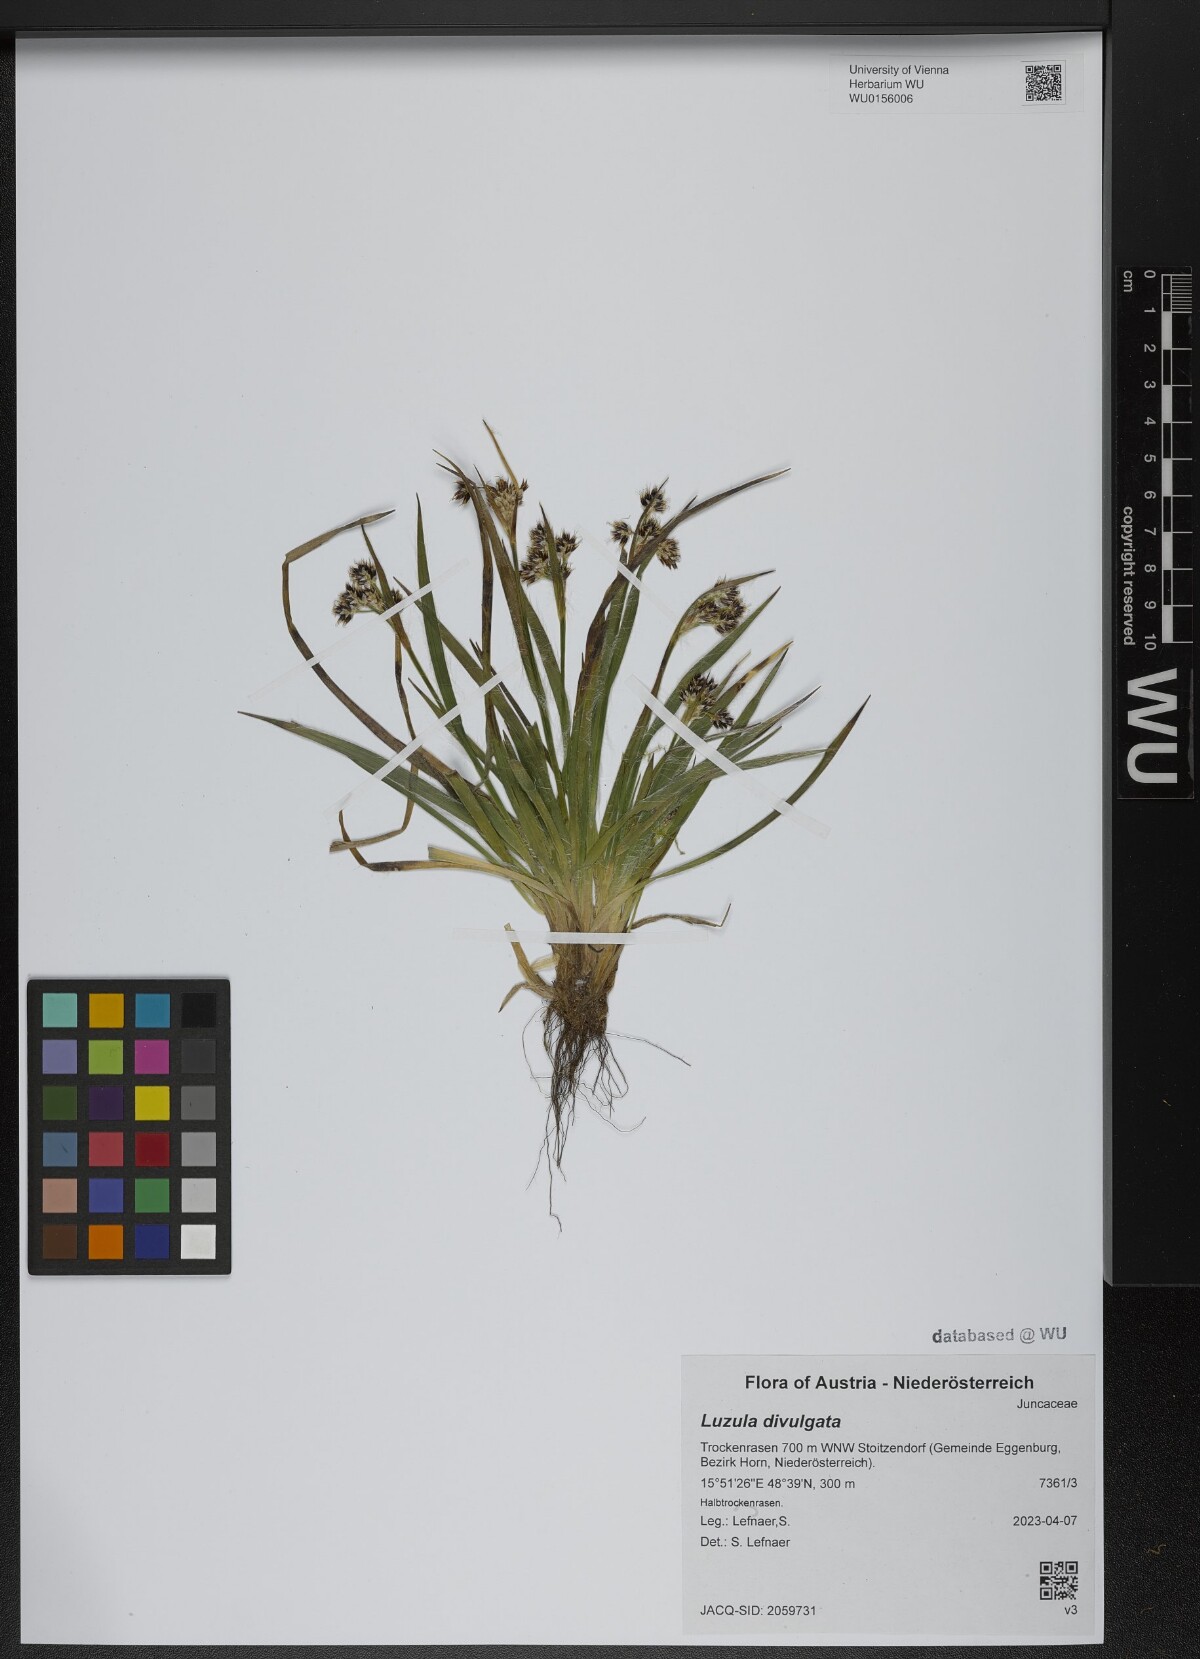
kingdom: Plantae
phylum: Tracheophyta
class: Liliopsida
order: Poales
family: Juncaceae
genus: Luzula
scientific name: Luzula divulgata
